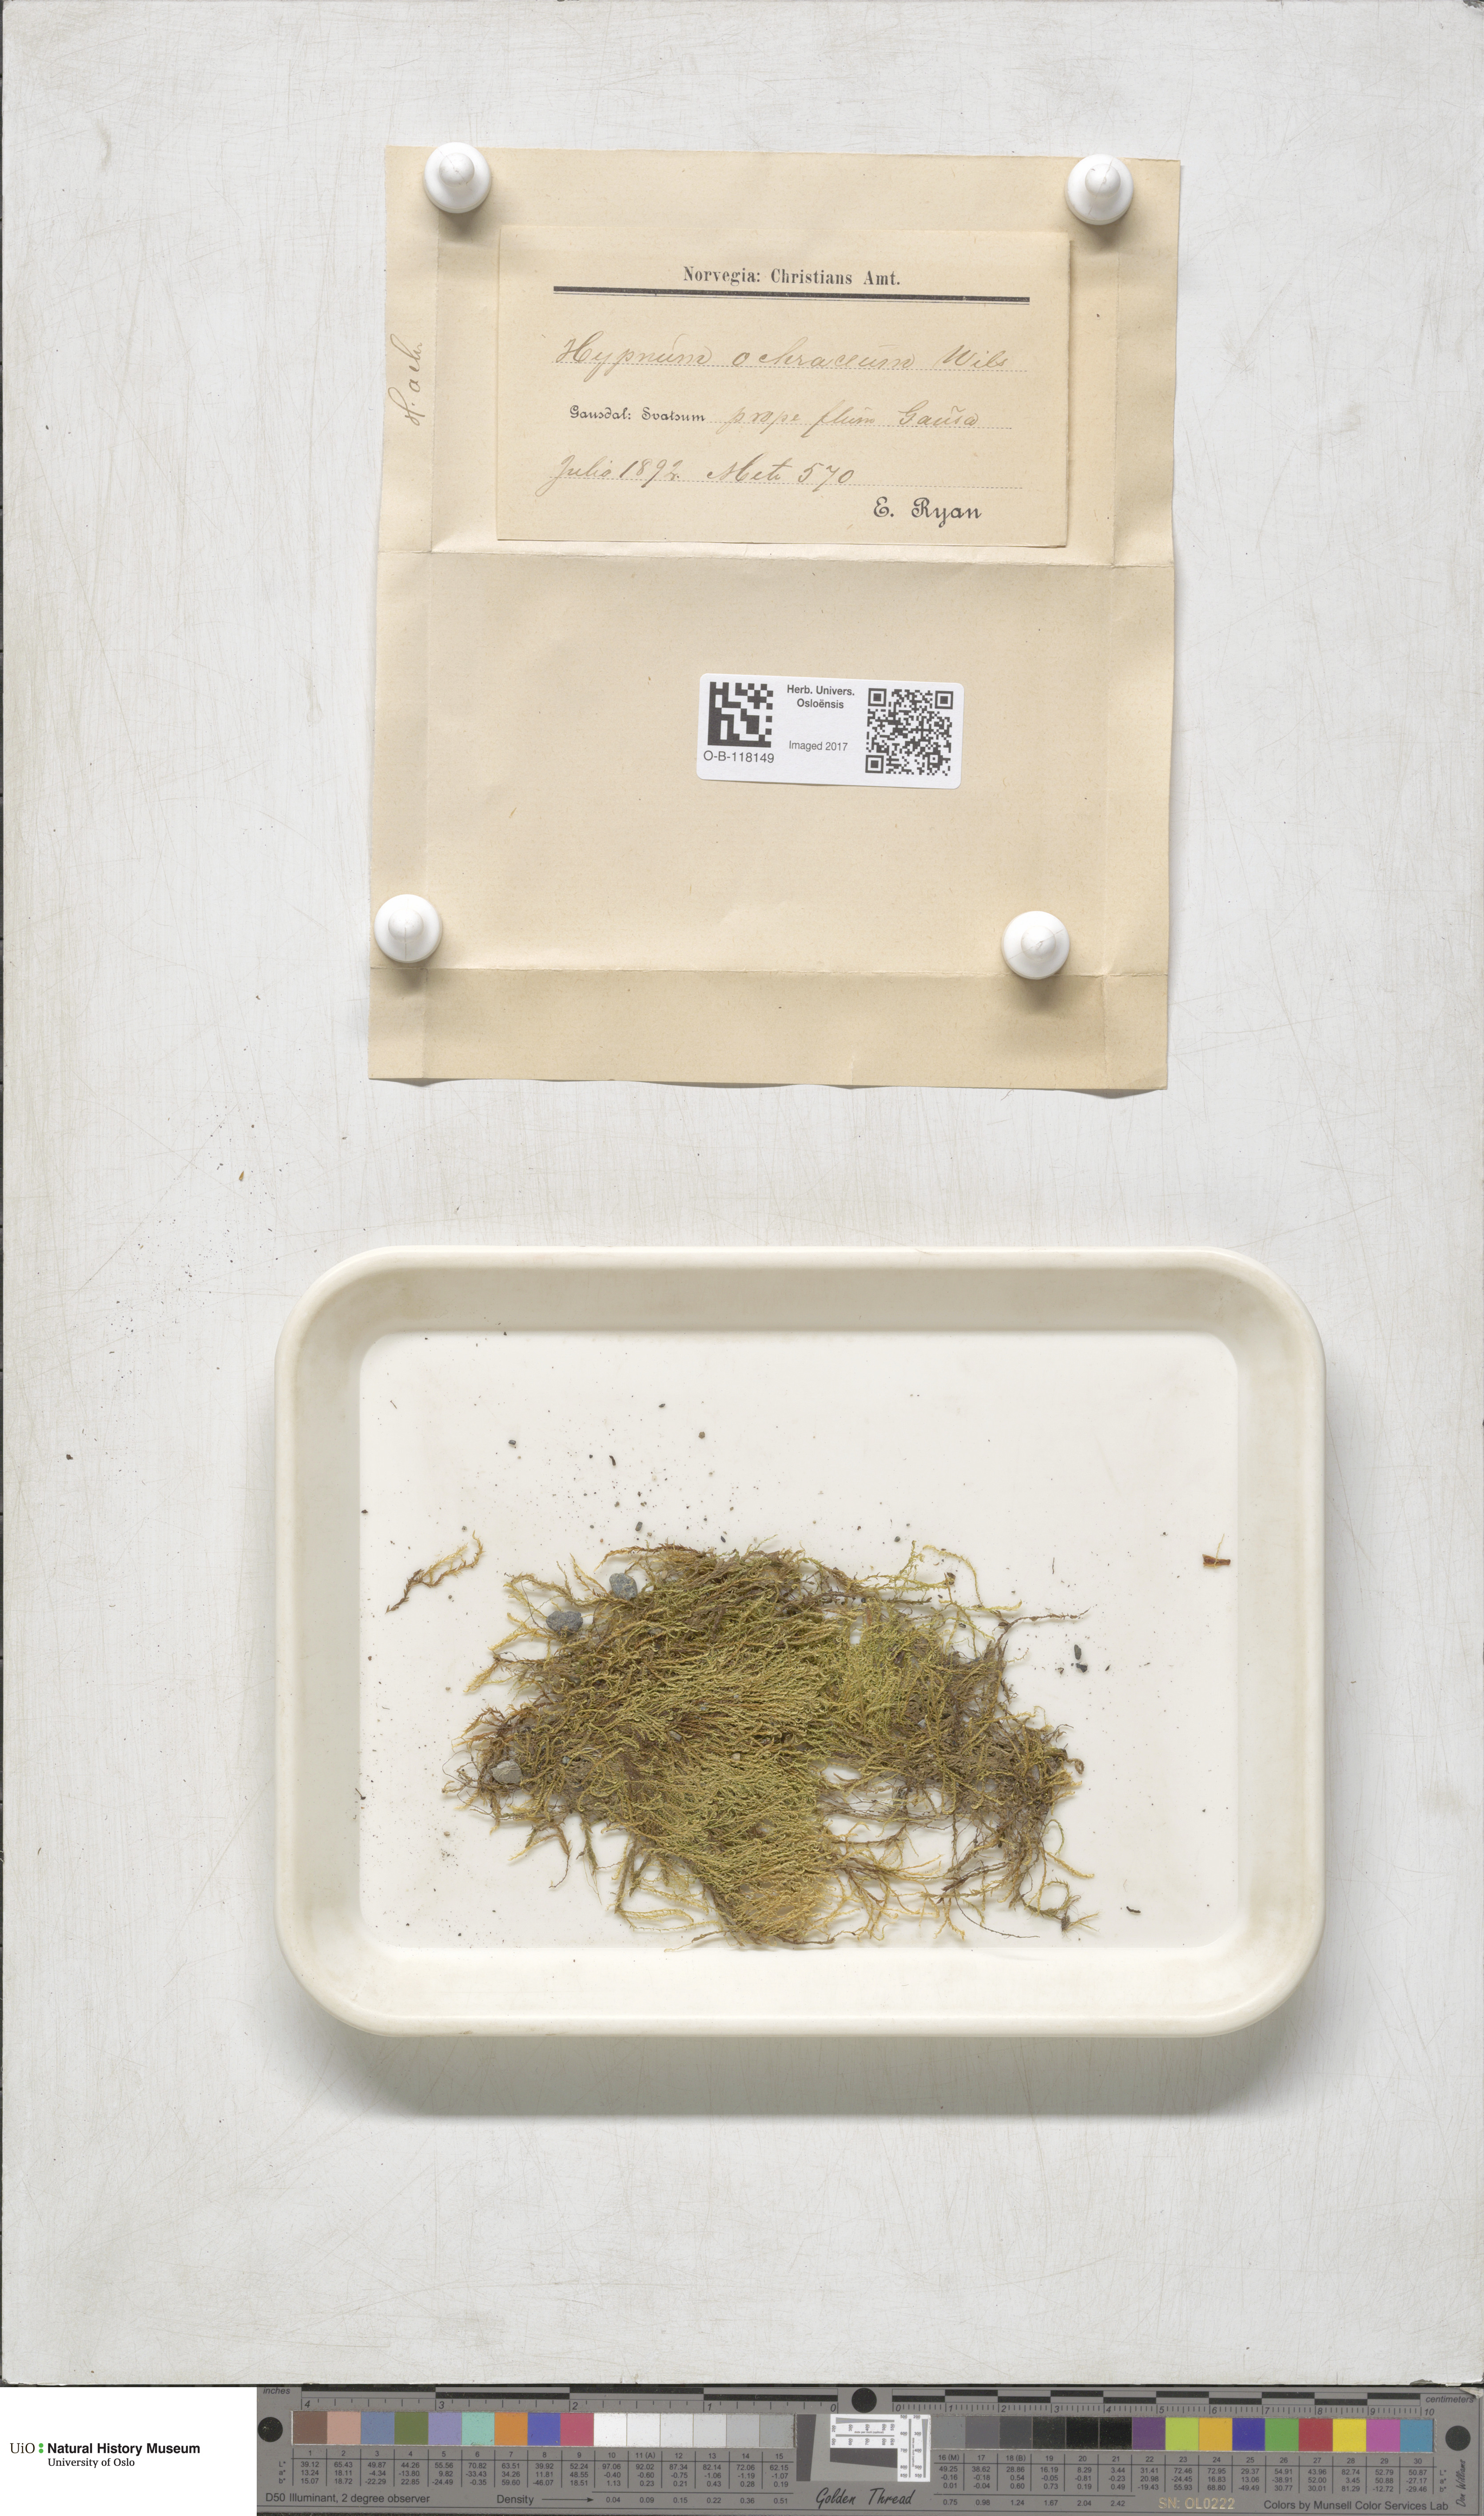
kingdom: Plantae
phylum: Bryophyta
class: Bryopsida
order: Hypnales
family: Scorpidiaceae
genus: Hygrohypnella
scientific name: Hygrohypnella ochracea
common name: Hygrohypnum moss
